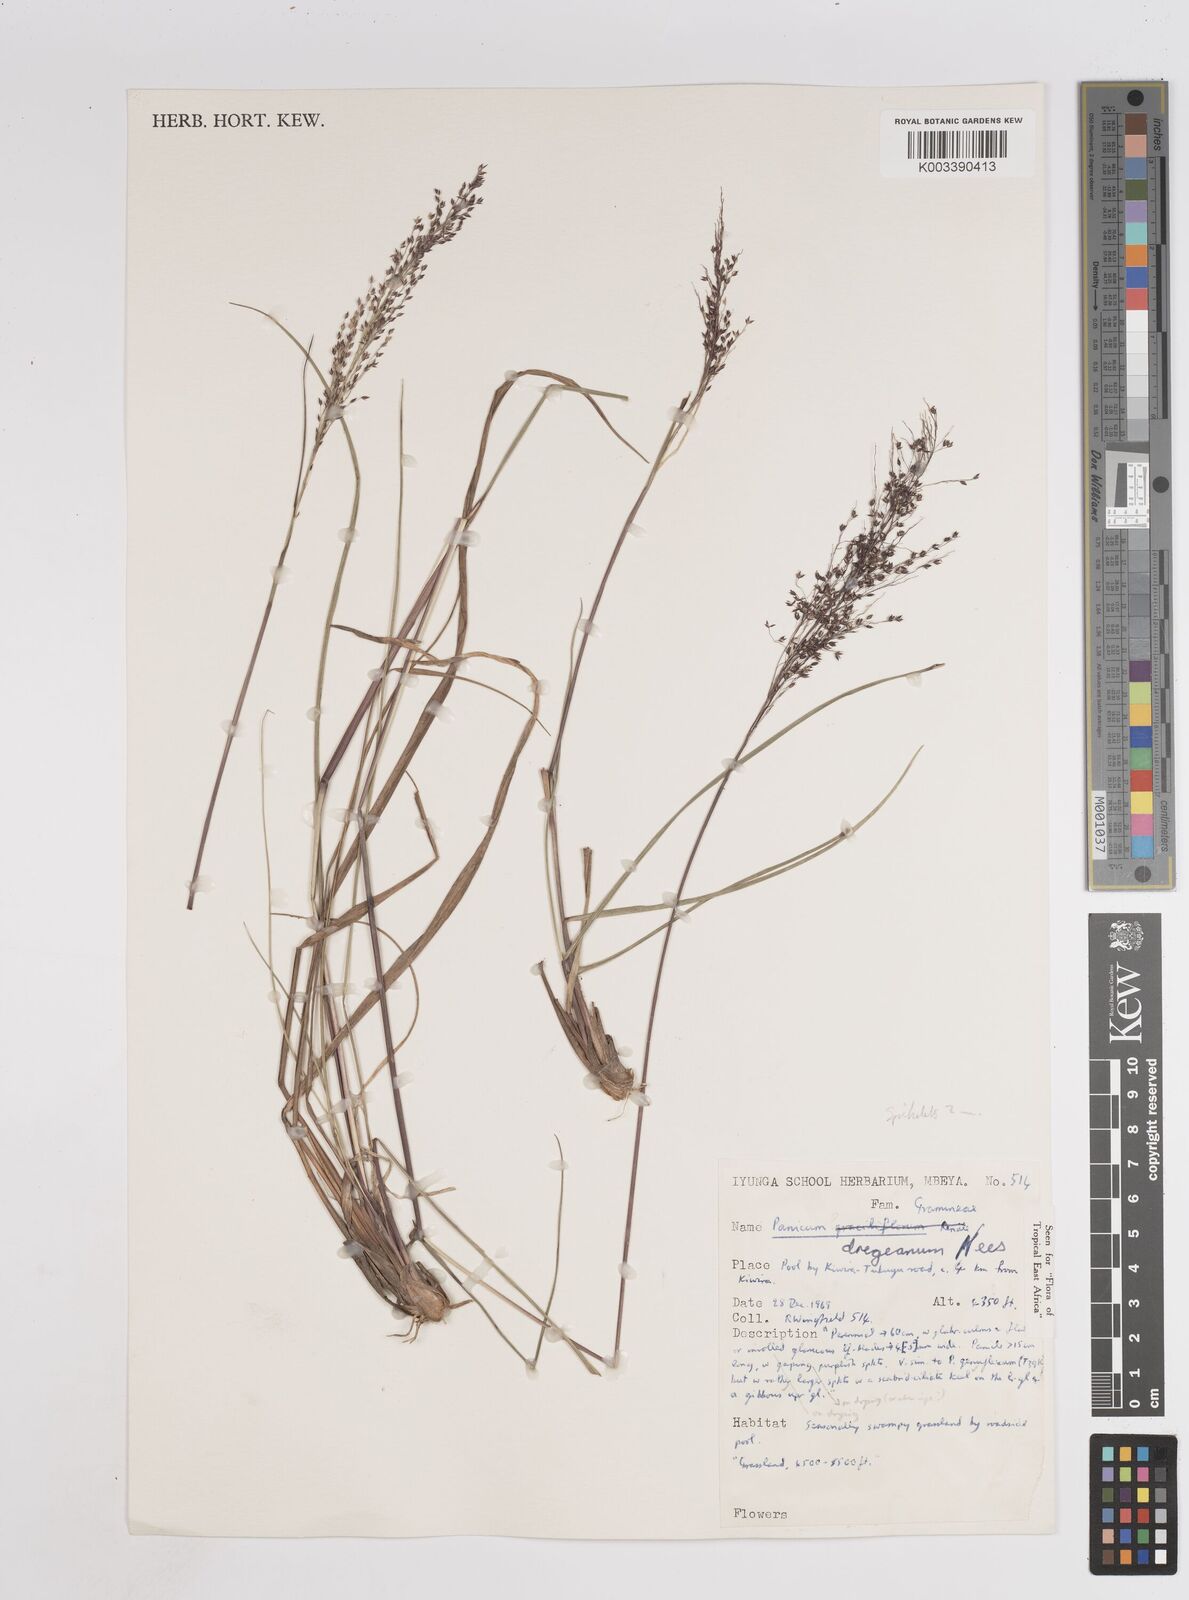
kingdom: Plantae
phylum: Tracheophyta
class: Liliopsida
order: Poales
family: Poaceae
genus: Panicum
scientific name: Panicum dregeanum
